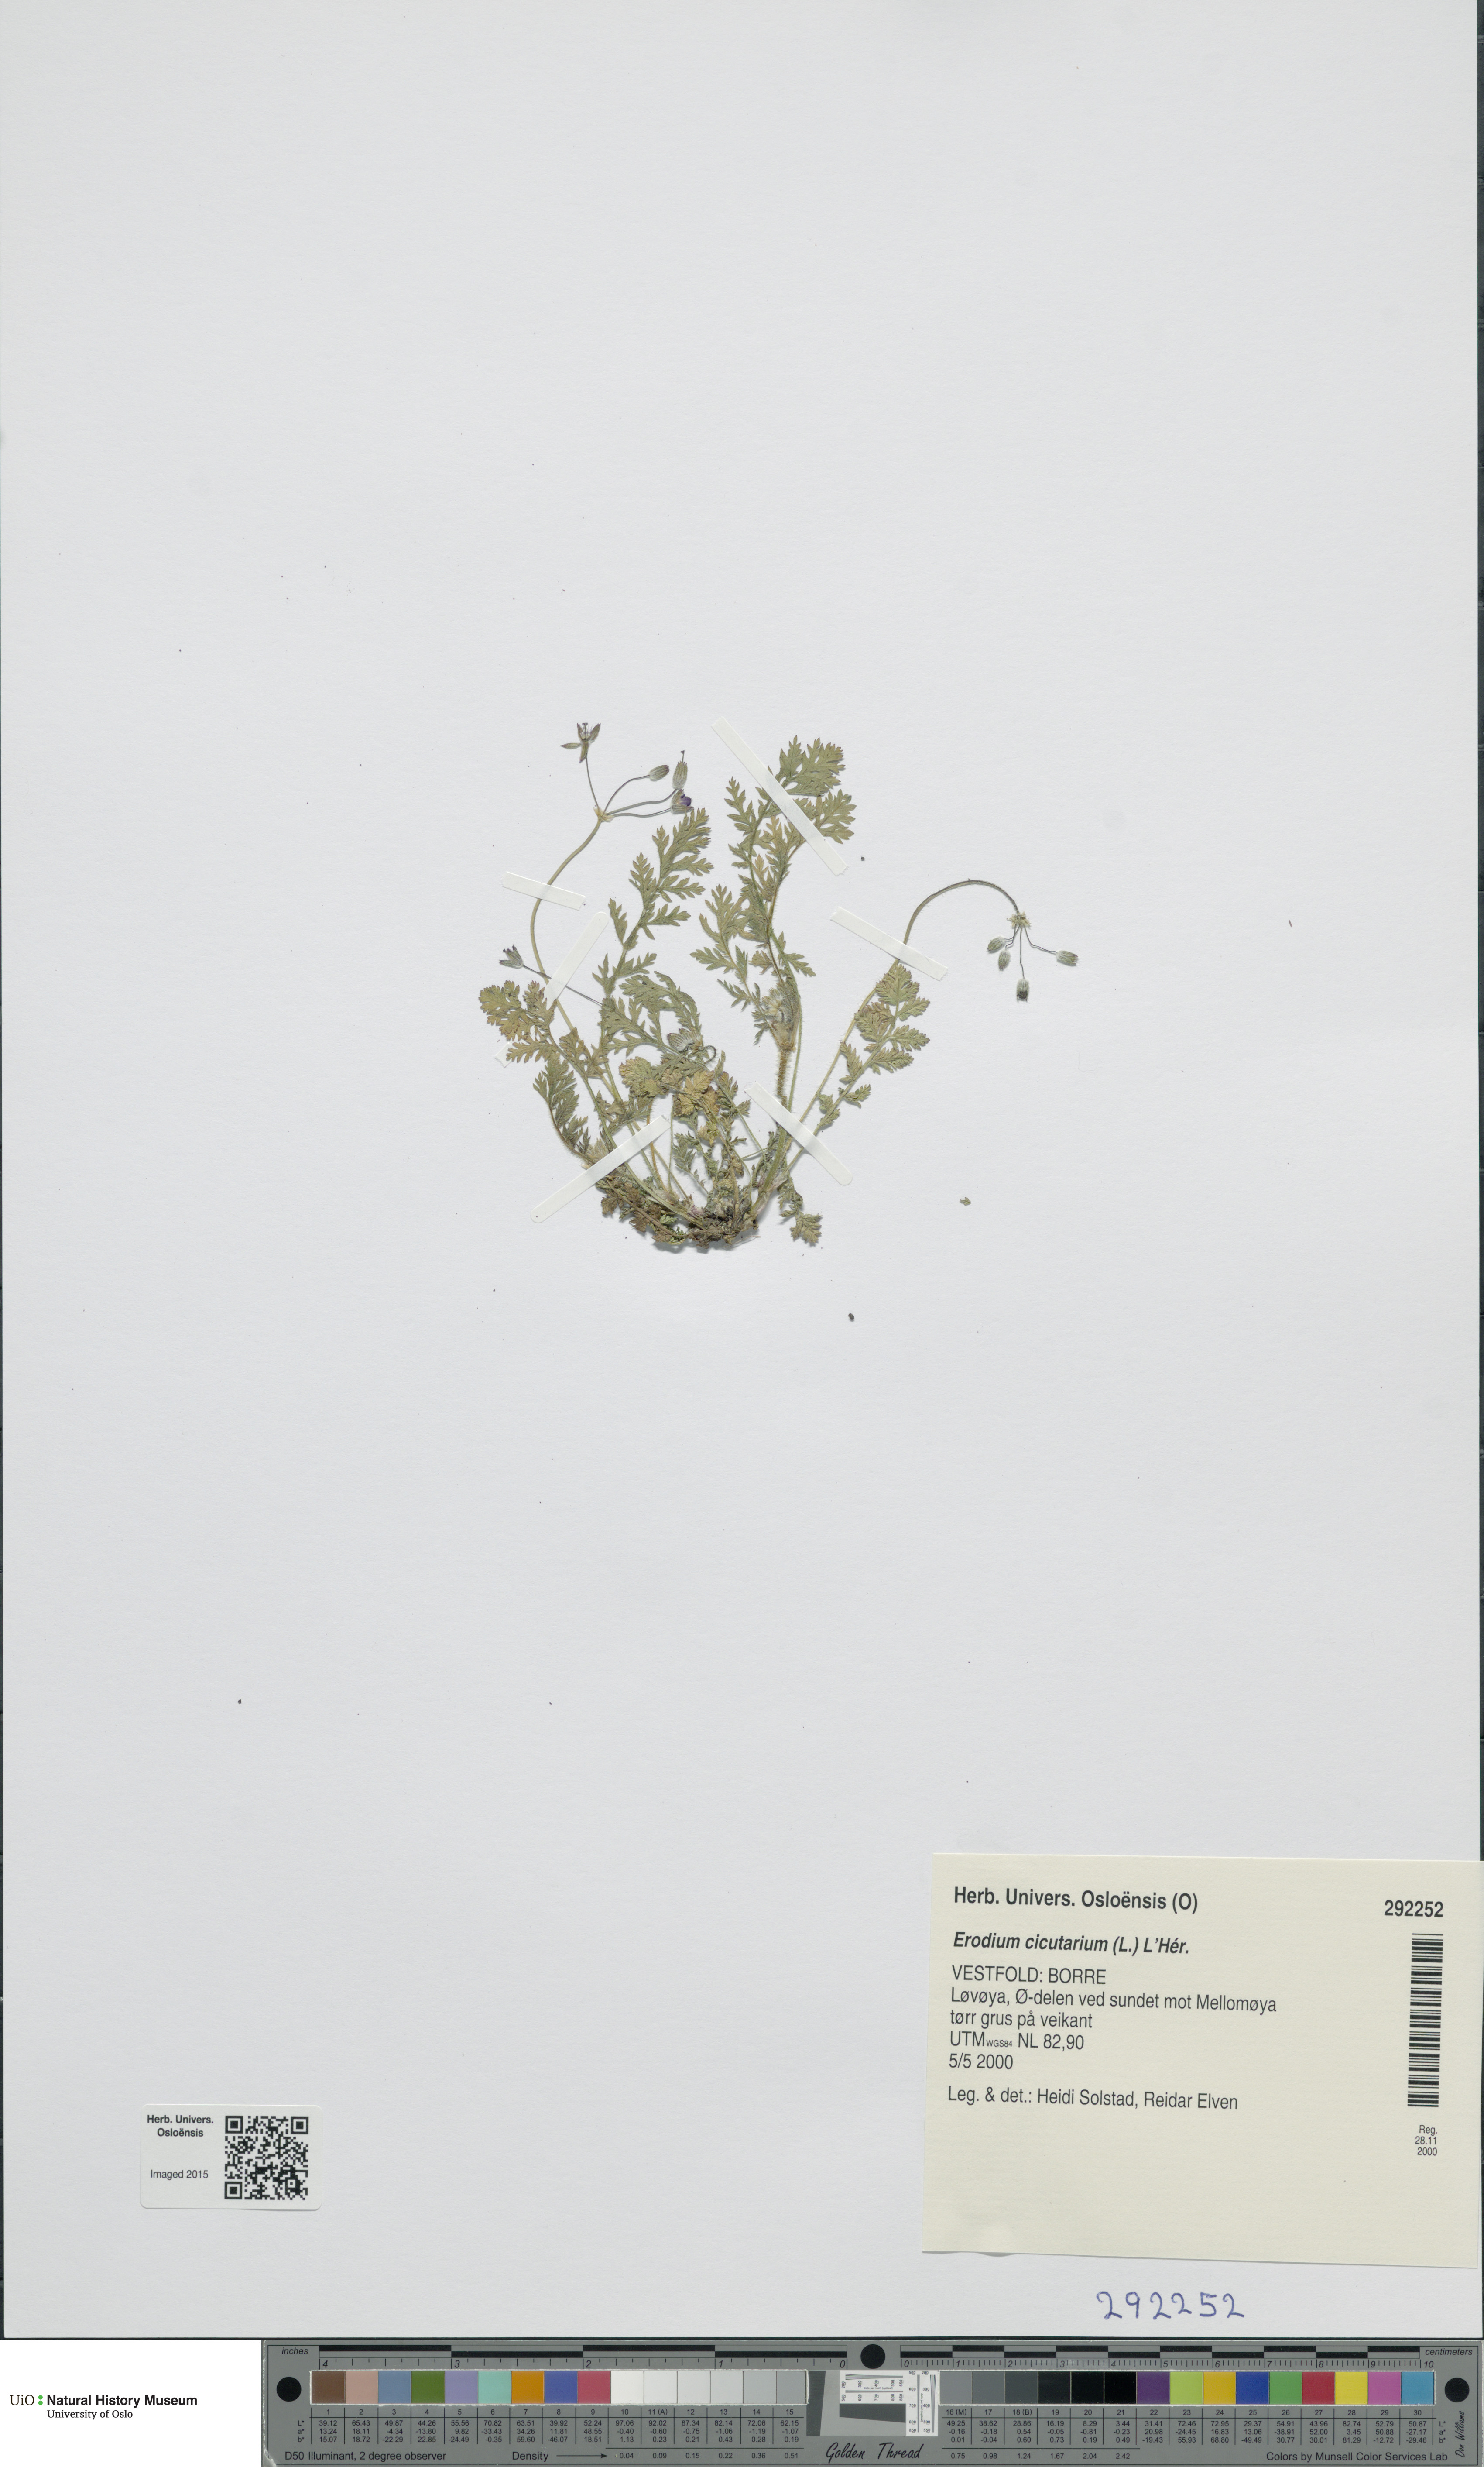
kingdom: Plantae
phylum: Tracheophyta
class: Magnoliopsida
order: Geraniales
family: Geraniaceae
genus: Erodium
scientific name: Erodium cicutarium
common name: Common stork's-bill
